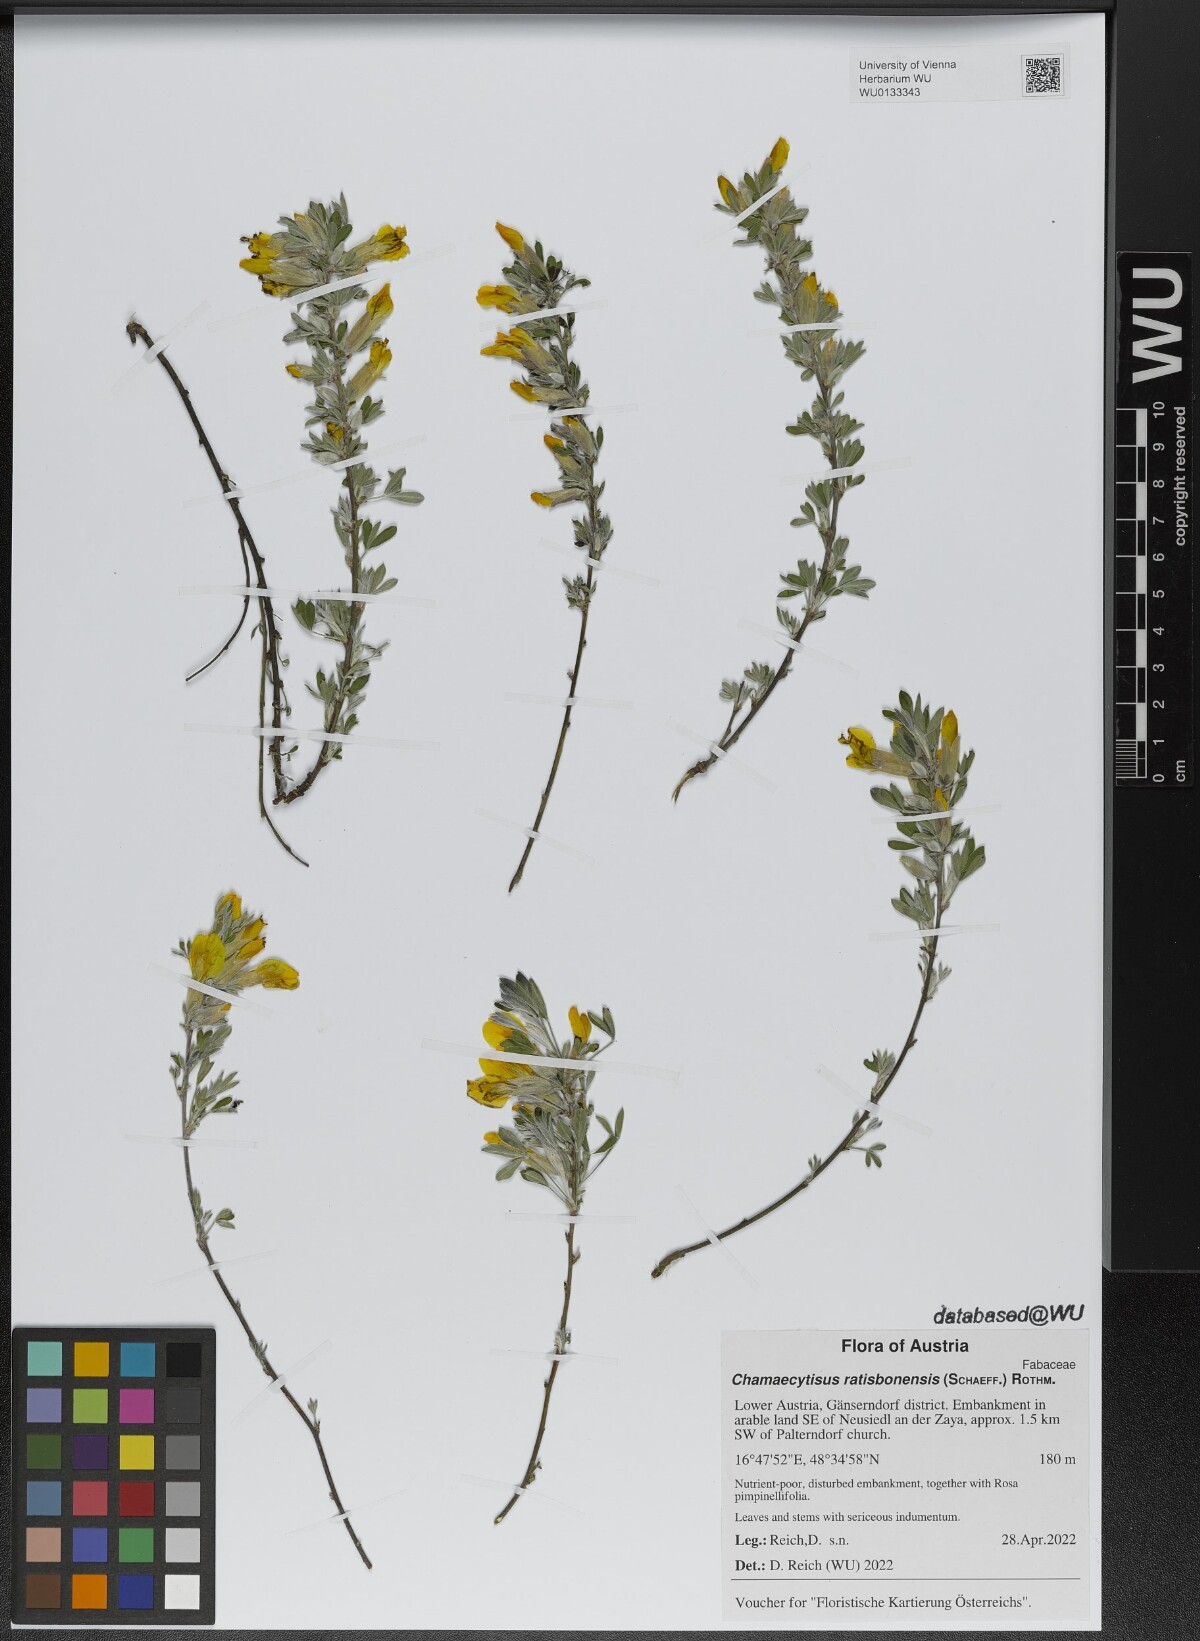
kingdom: Plantae
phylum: Tracheophyta
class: Magnoliopsida
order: Fabales
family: Fabaceae
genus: Chamaecytisus
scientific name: Chamaecytisus ratisbonensis
